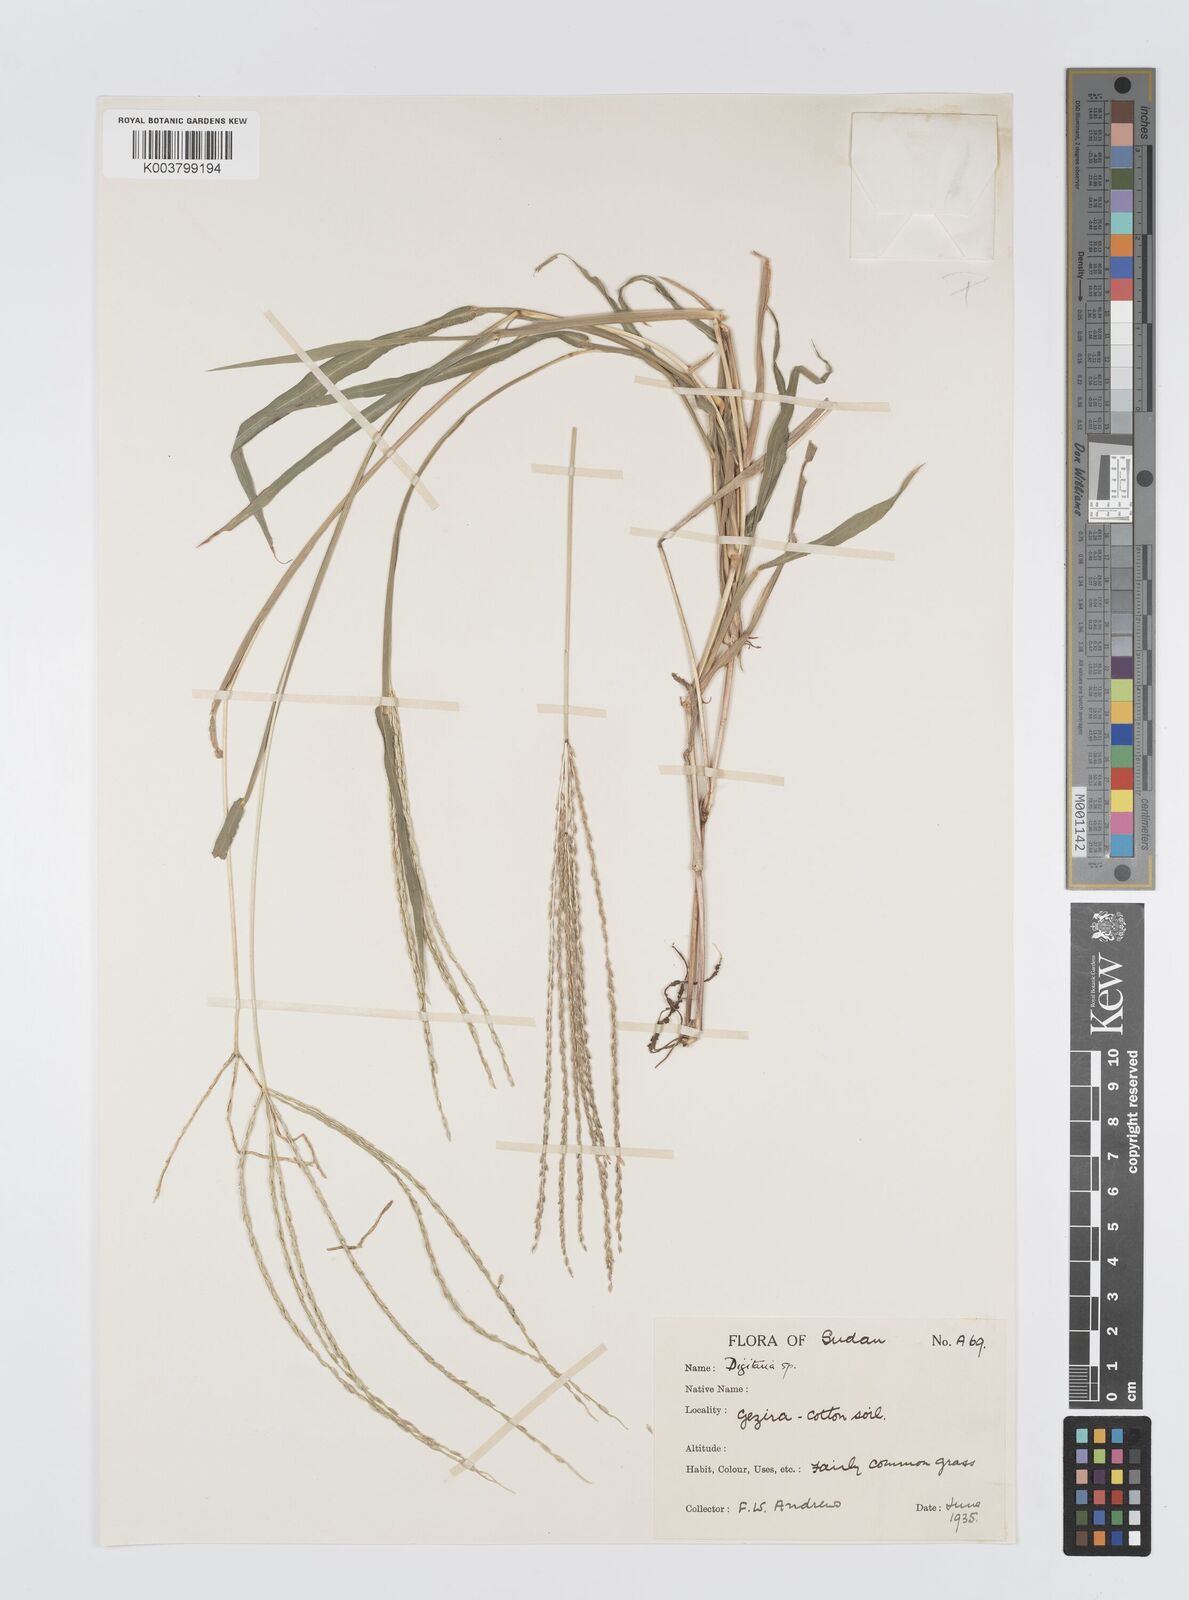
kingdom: Plantae
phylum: Tracheophyta
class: Liliopsida
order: Poales
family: Poaceae
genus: Digitaria
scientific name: Digitaria spec
